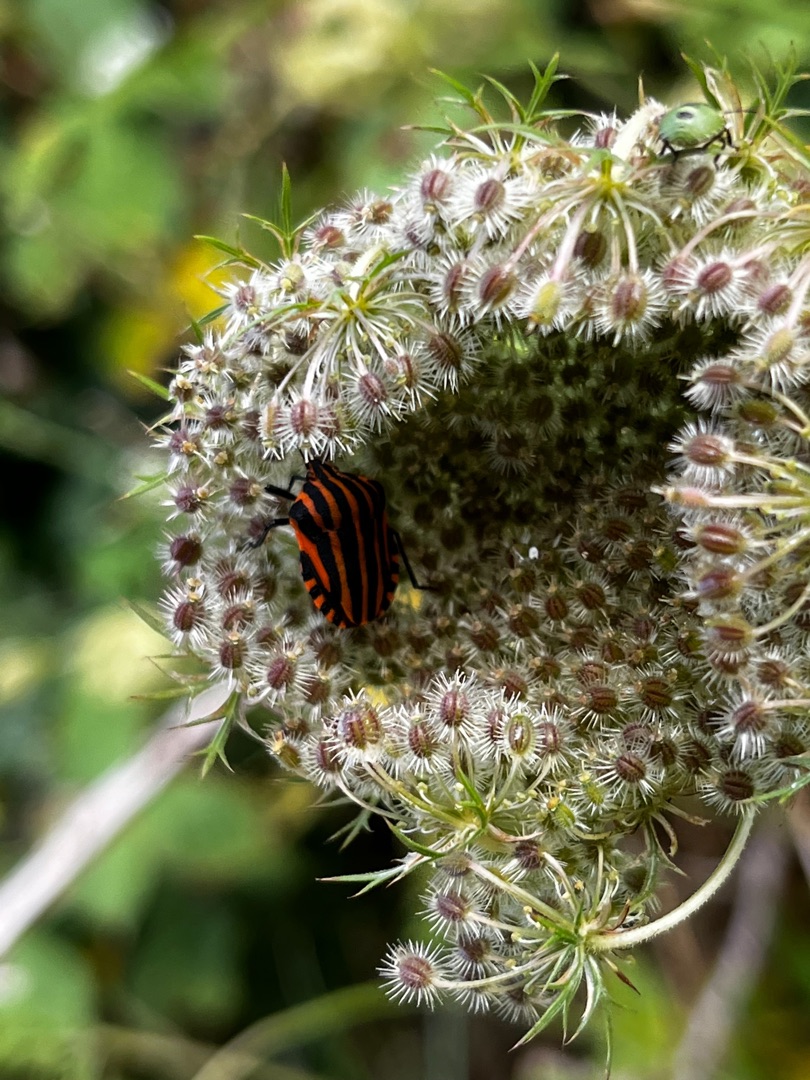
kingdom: Animalia
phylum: Arthropoda
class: Insecta
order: Hemiptera
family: Pentatomidae
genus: Graphosoma
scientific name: Graphosoma italicum
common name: Stribetæge
